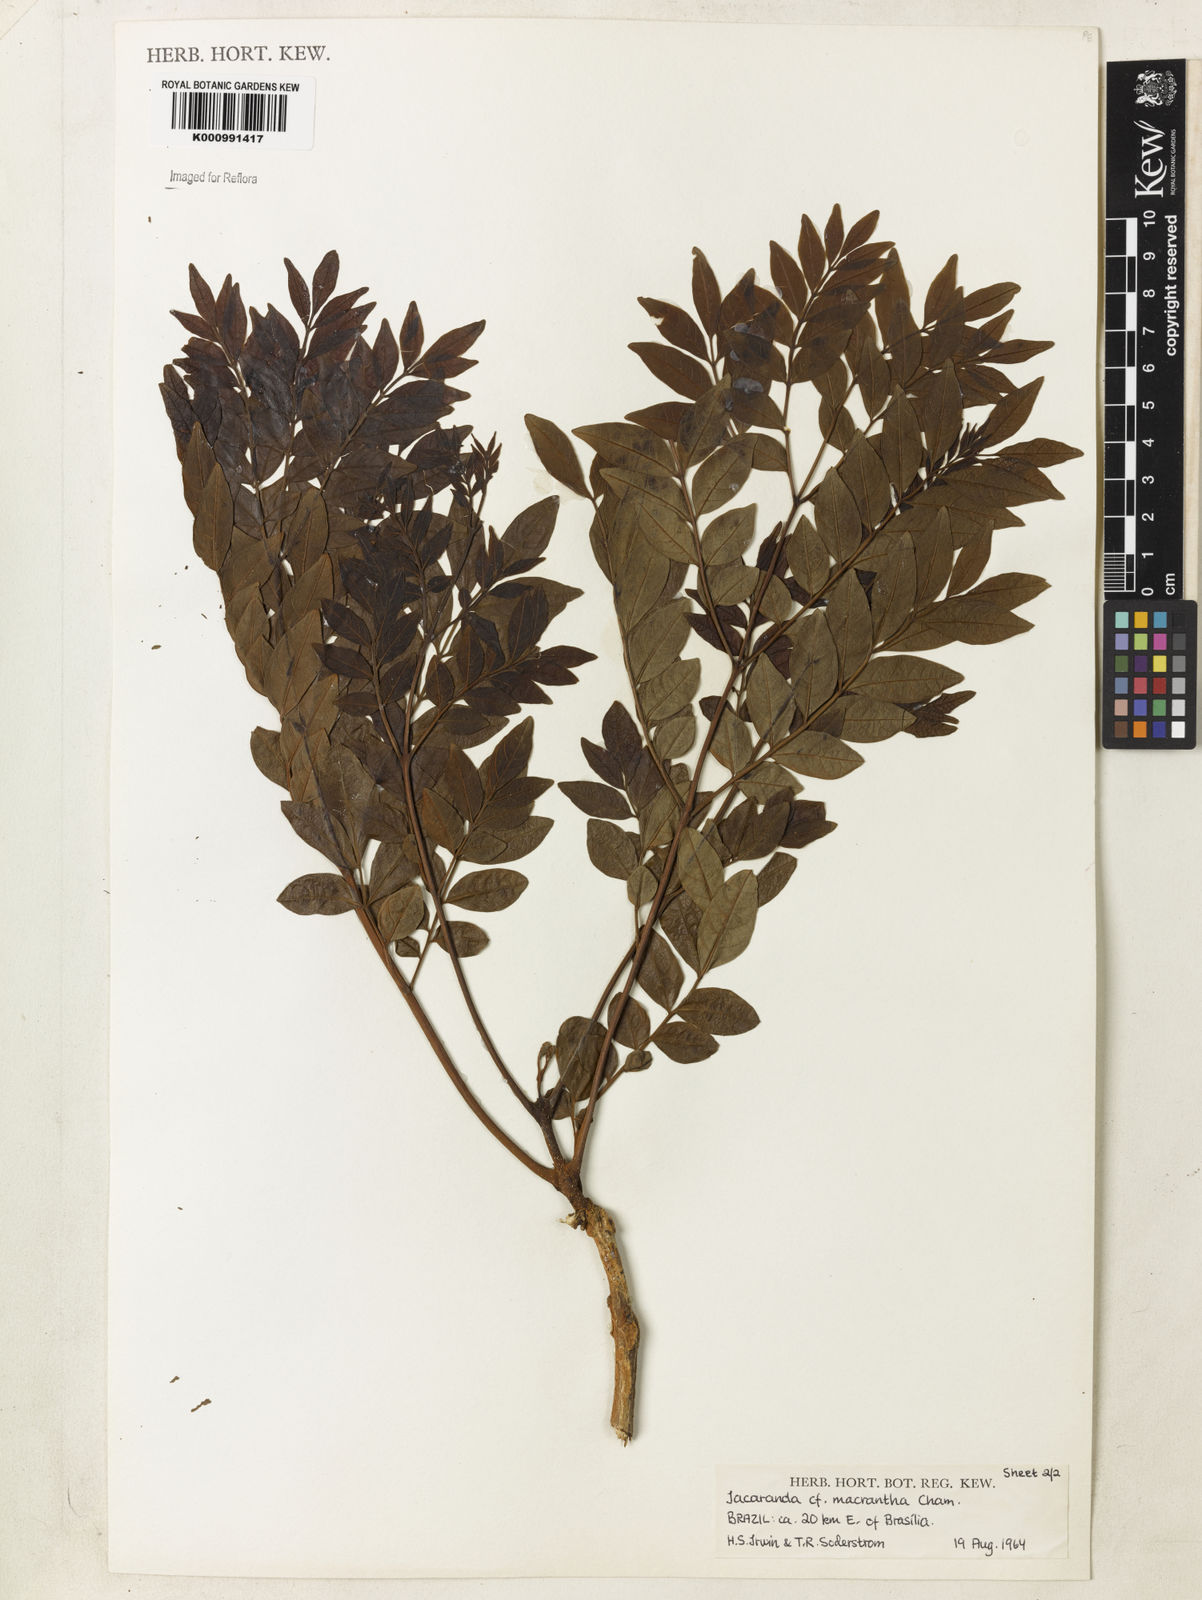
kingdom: Plantae
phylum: Tracheophyta
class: Magnoliopsida
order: Lamiales
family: Bignoniaceae
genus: Jacaranda
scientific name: Jacaranda macrantha
